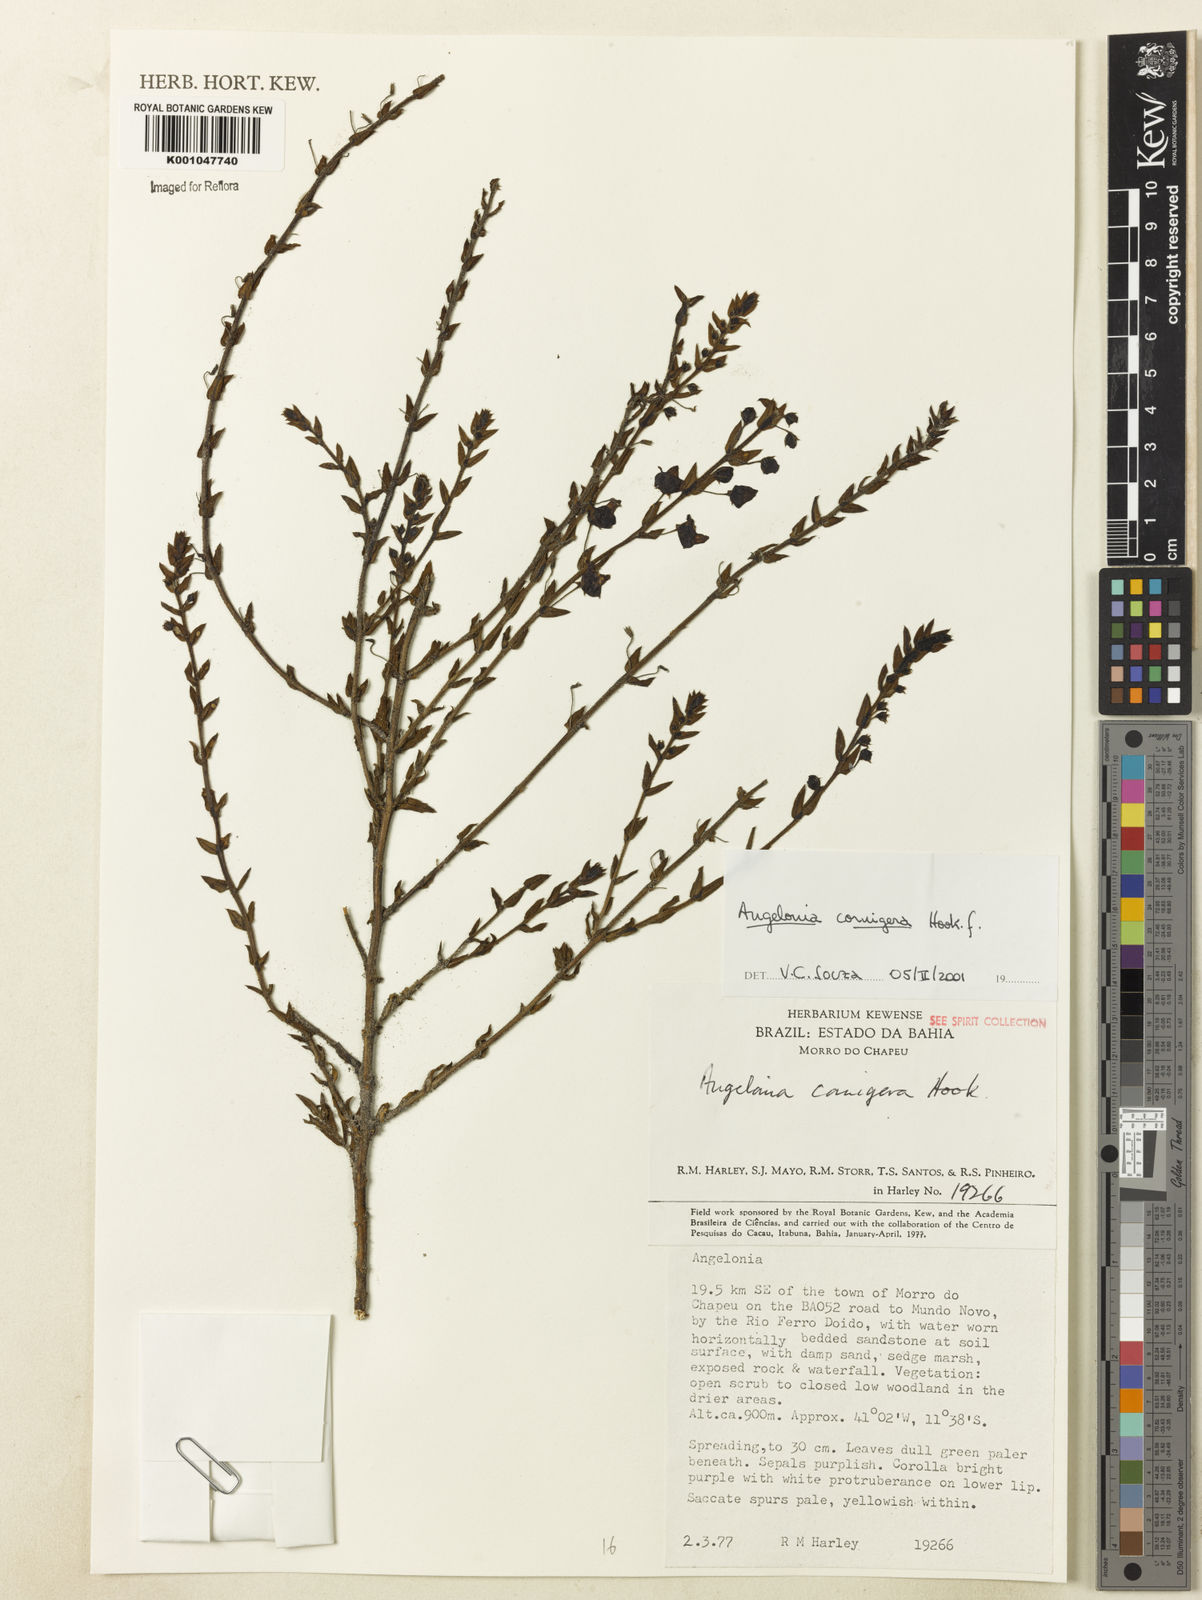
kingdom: Plantae
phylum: Tracheophyta
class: Magnoliopsida
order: Lamiales
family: Plantaginaceae
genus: Angelonia
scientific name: Angelonia cornigera
